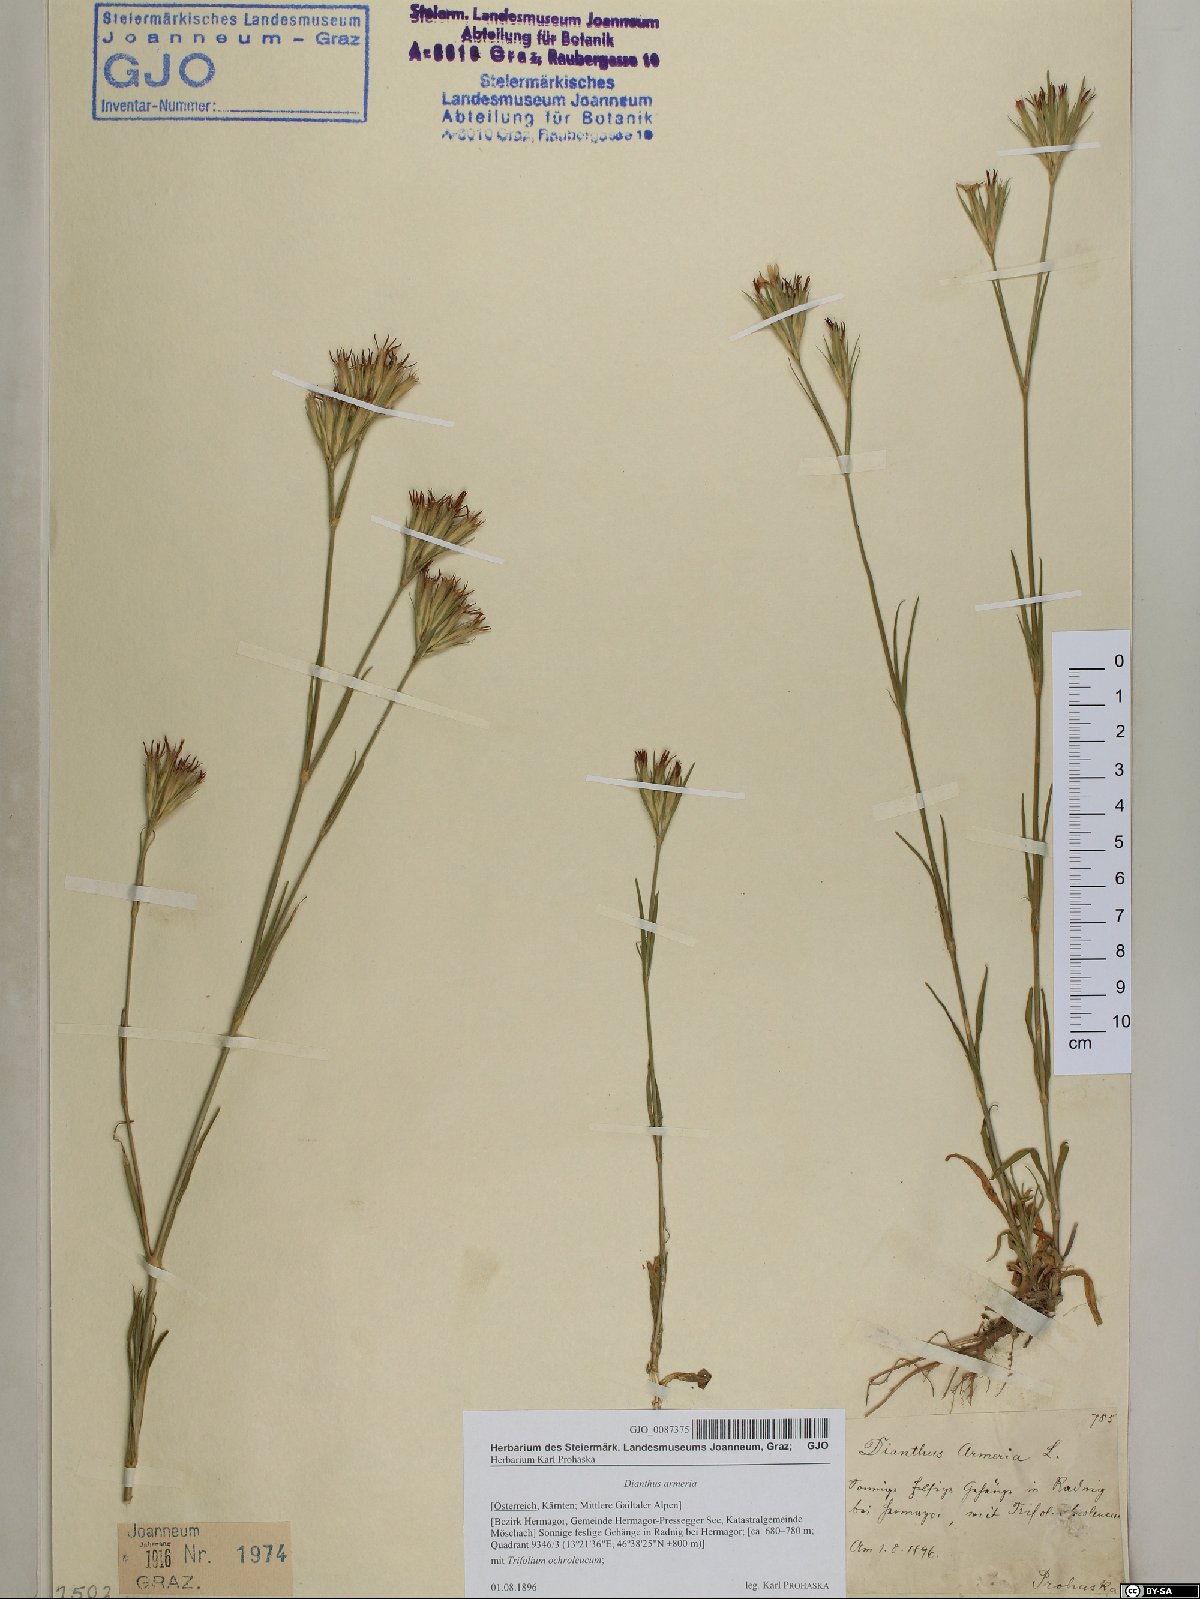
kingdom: Plantae
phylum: Tracheophyta
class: Magnoliopsida
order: Caryophyllales
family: Caryophyllaceae
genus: Dianthus
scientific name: Dianthus armeria
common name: Deptford pink
